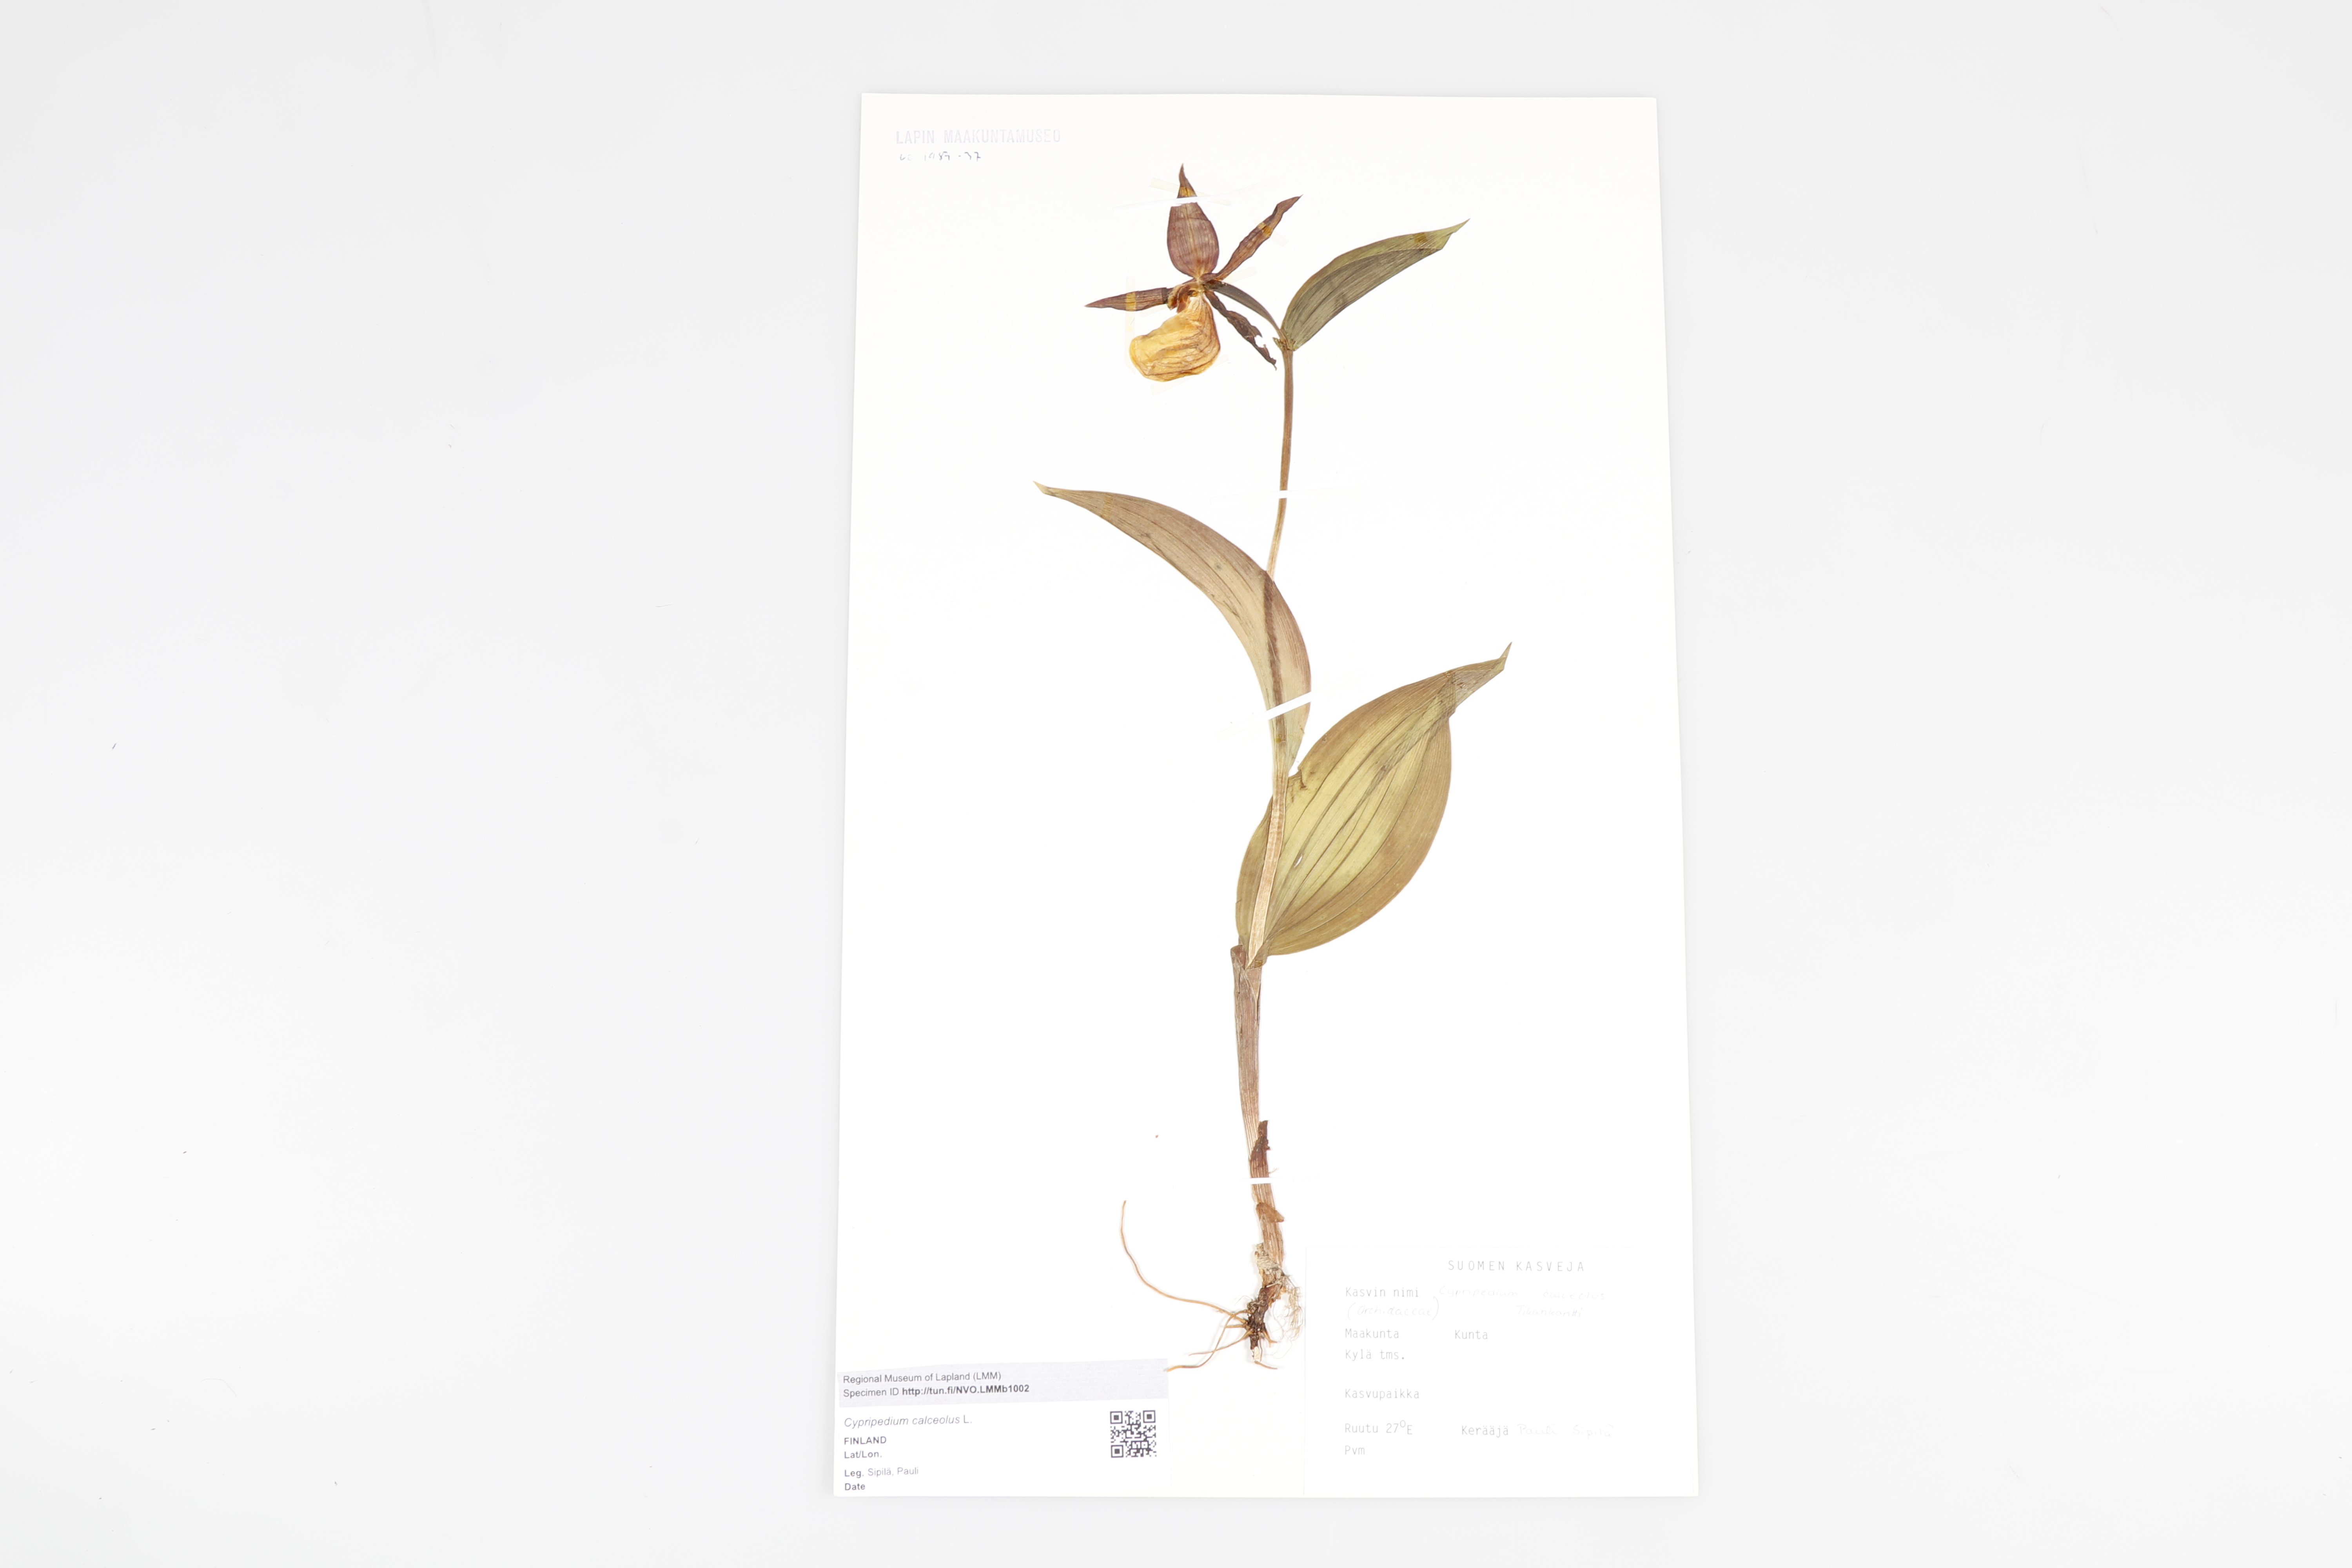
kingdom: Plantae
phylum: Tracheophyta
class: Liliopsida
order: Asparagales
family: Orchidaceae
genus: Cypripedium
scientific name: Cypripedium calceolus
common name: Lady's-slipper
